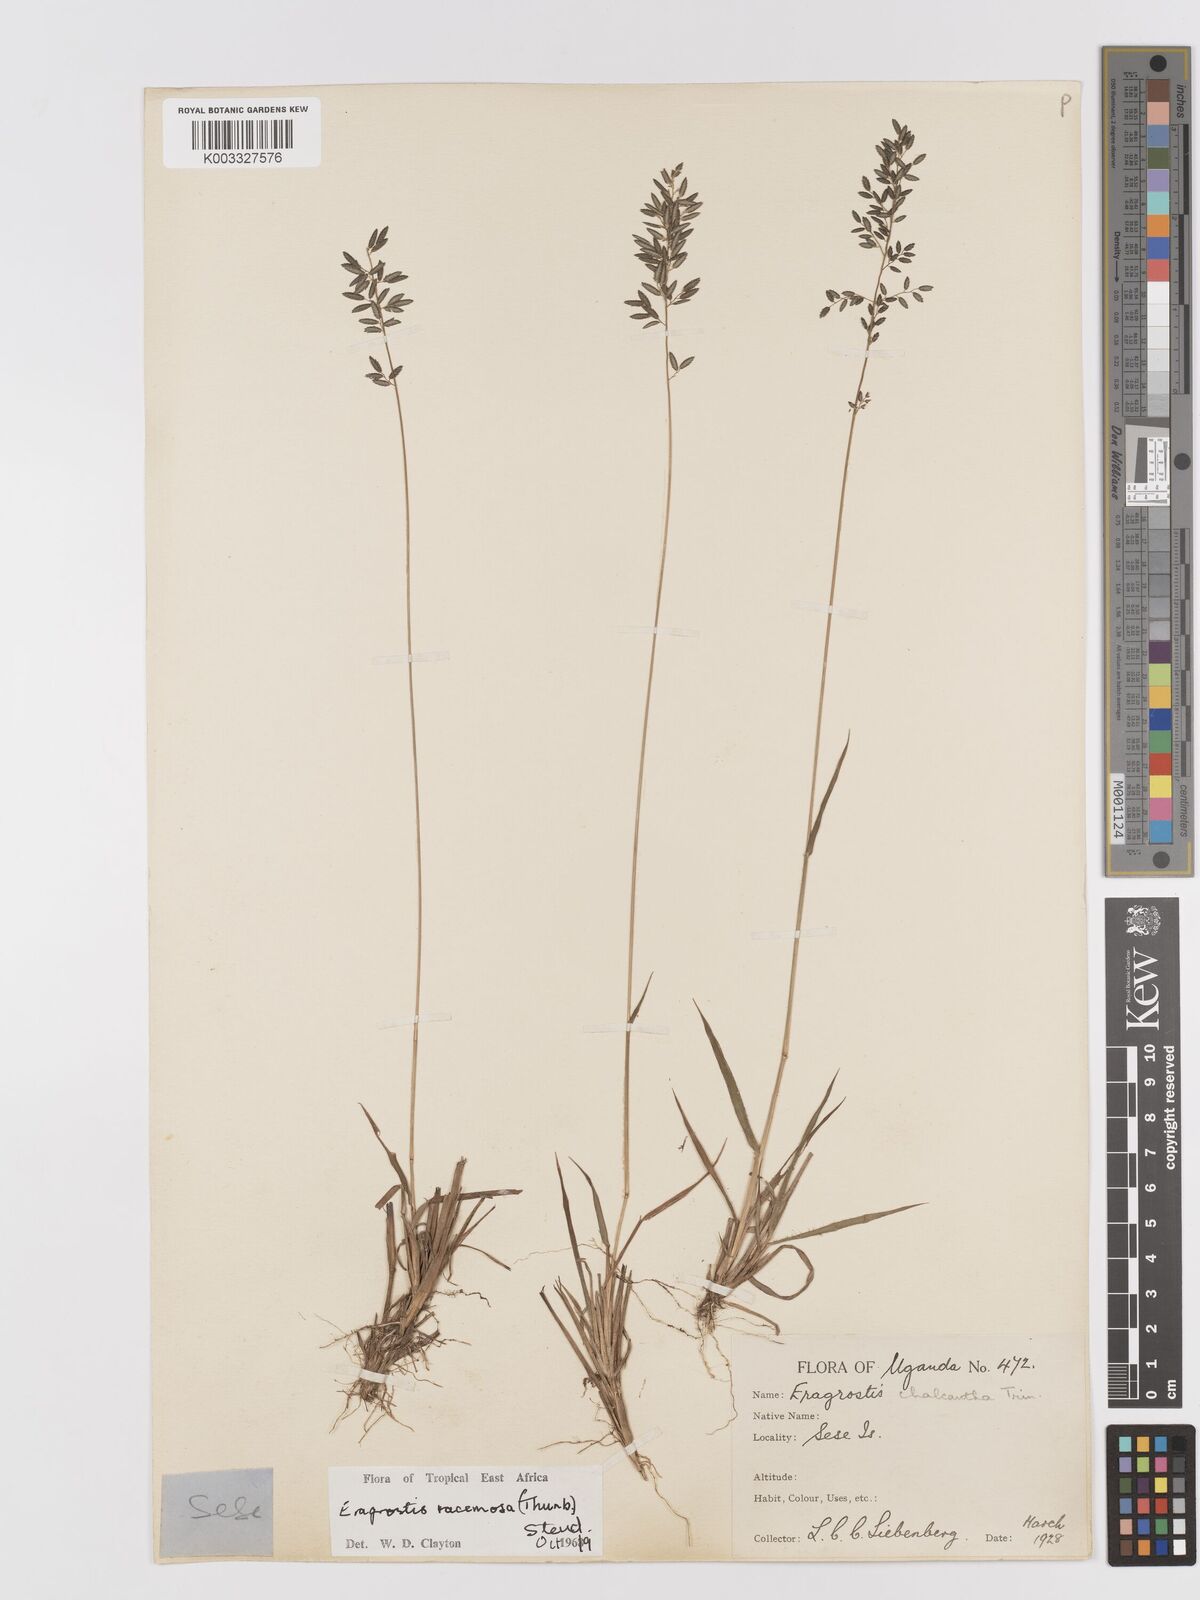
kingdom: Plantae
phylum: Tracheophyta
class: Liliopsida
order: Poales
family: Poaceae
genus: Eragrostis
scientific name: Eragrostis racemosa
